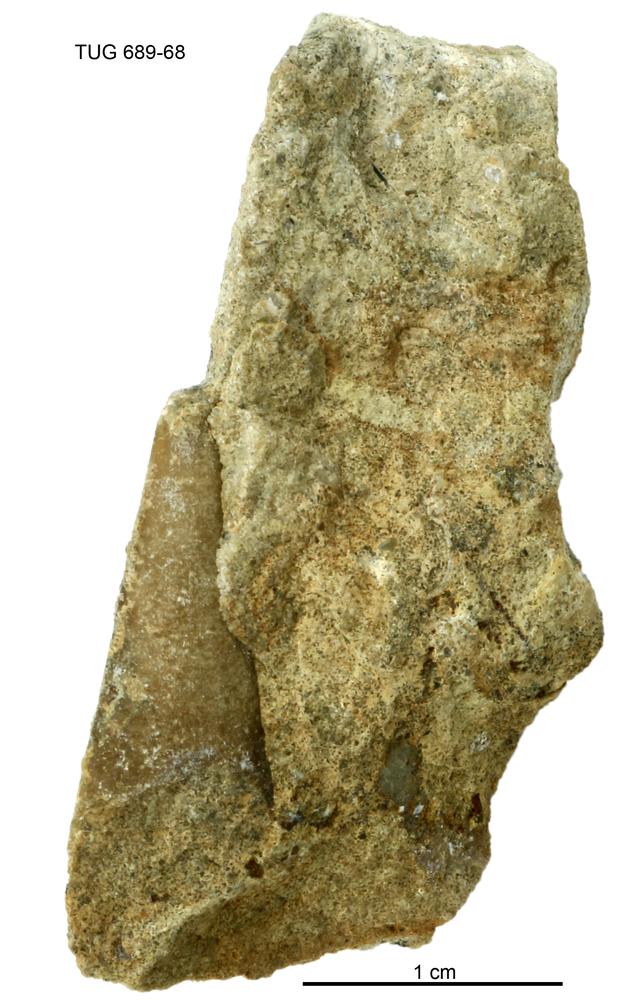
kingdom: Animalia
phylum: Bryozoa
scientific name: Bryozoa
